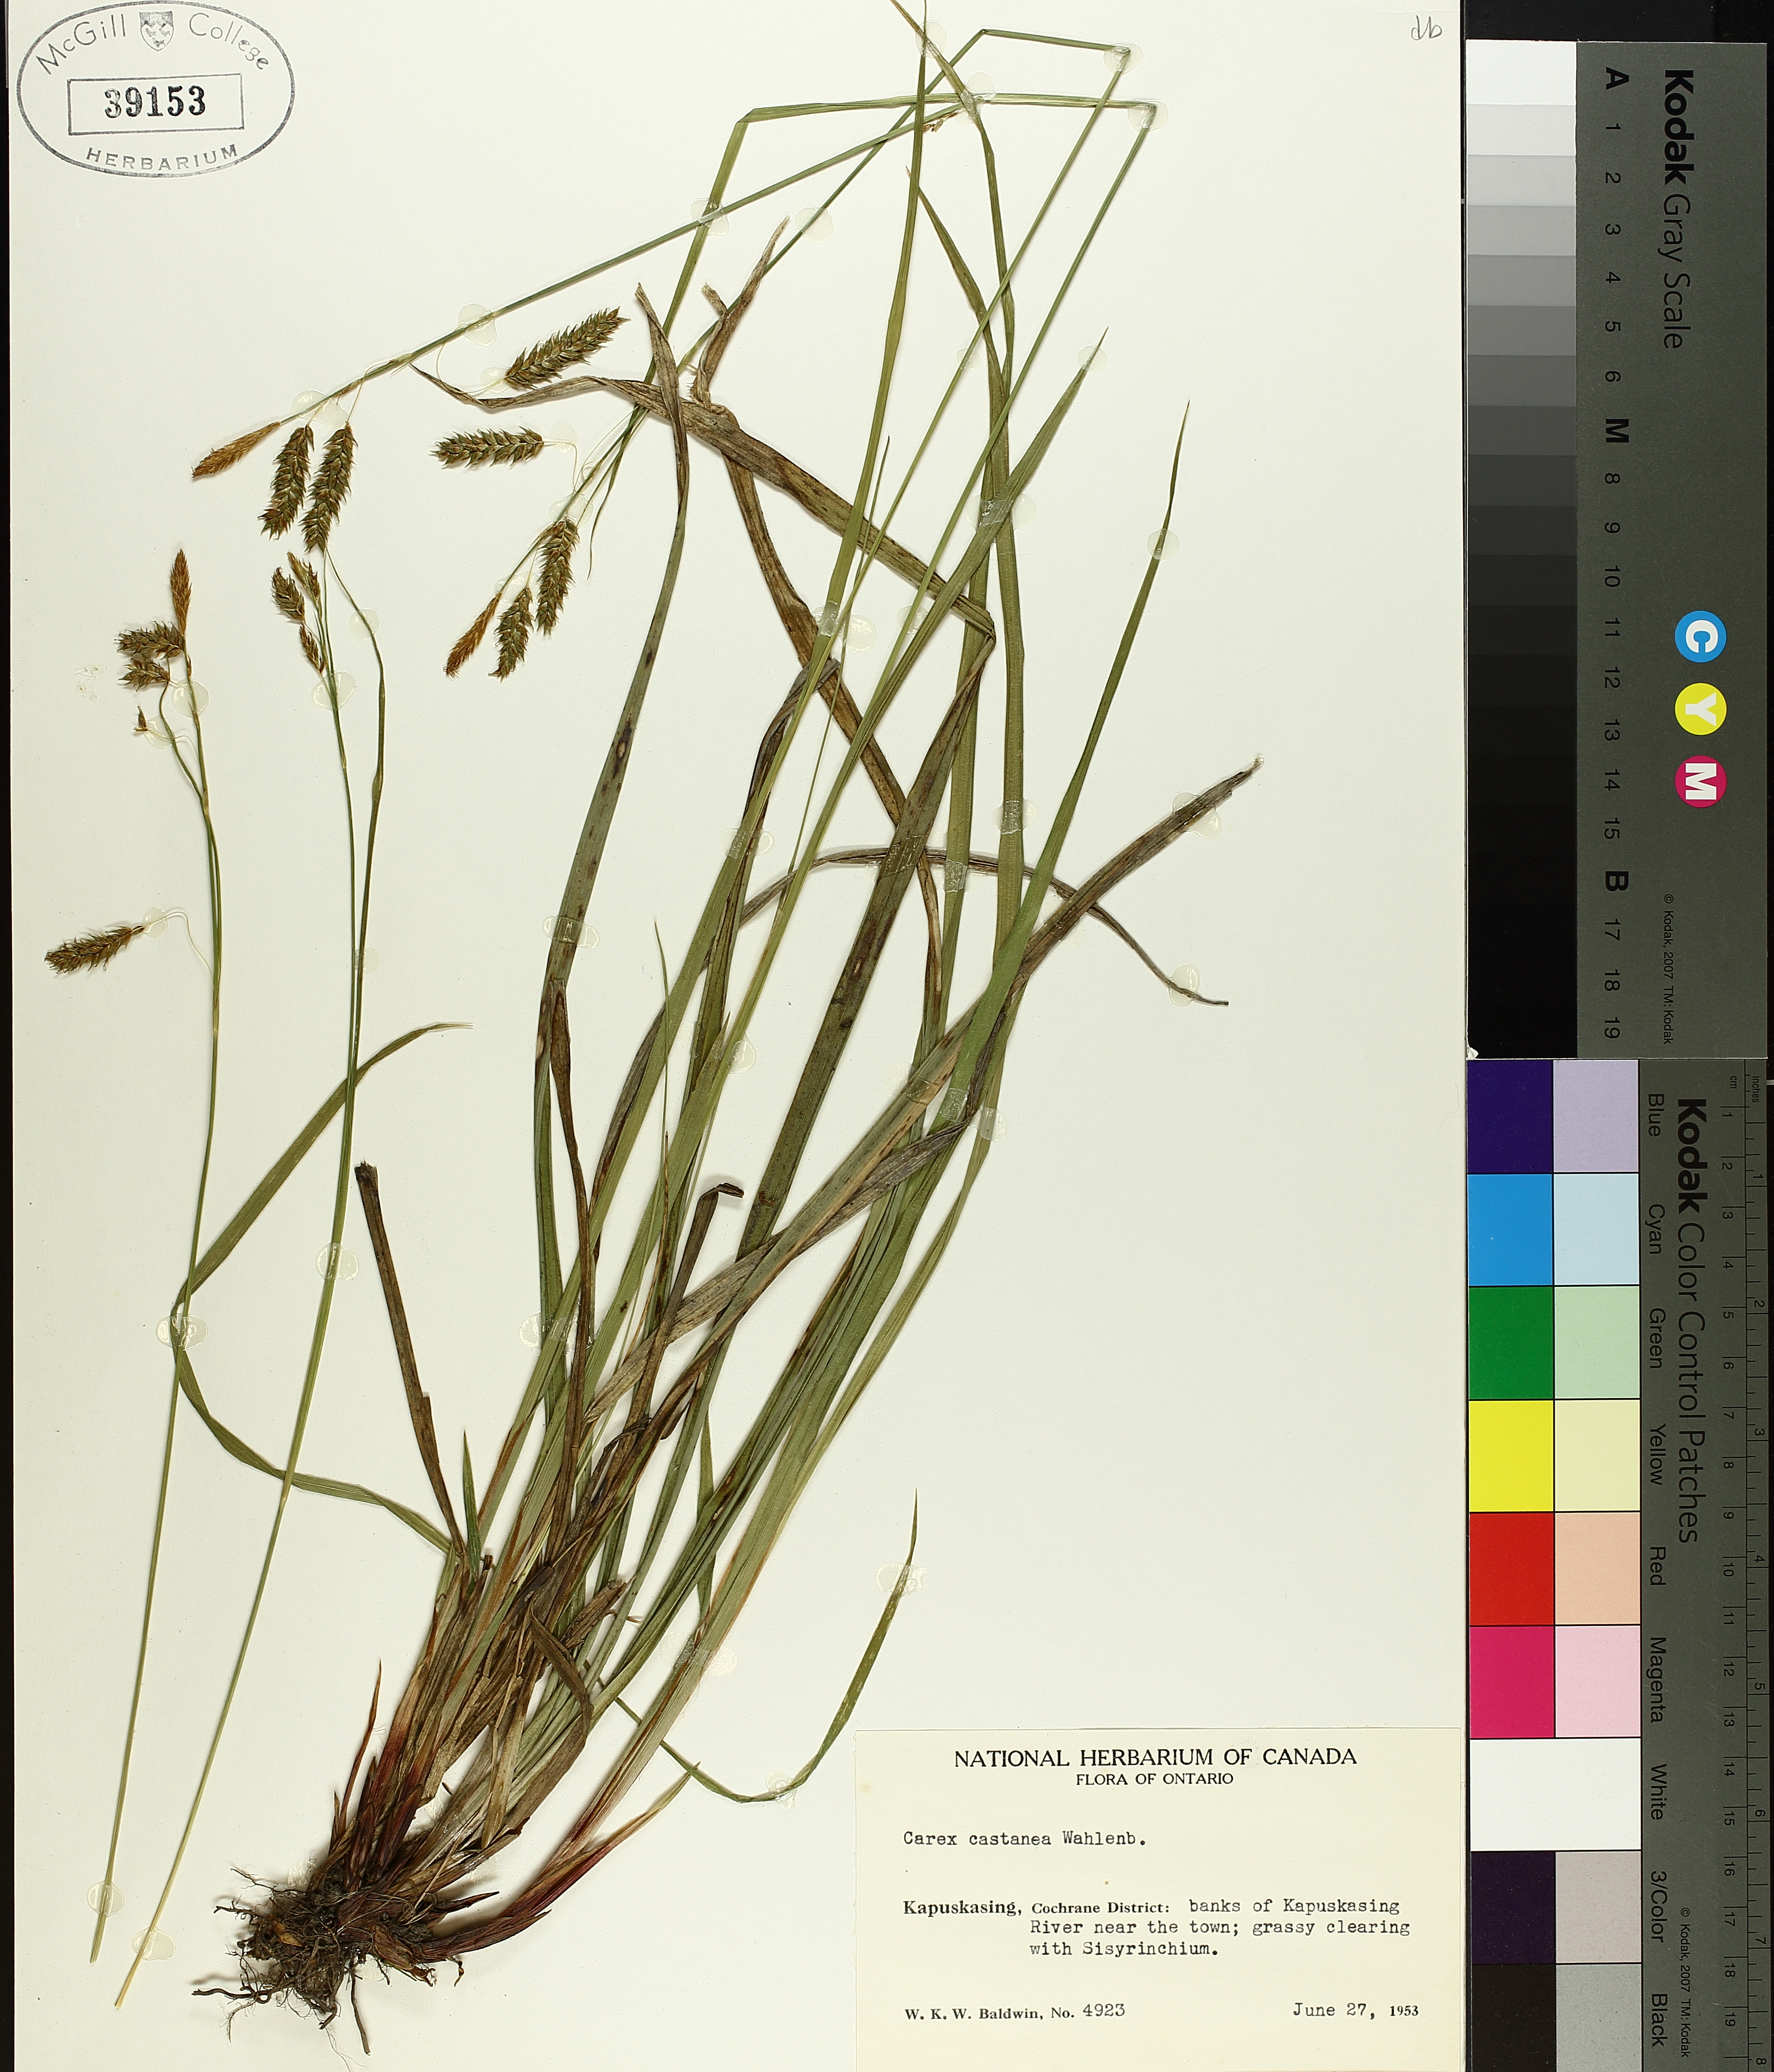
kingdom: Plantae
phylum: Tracheophyta
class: Liliopsida
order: Poales
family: Cyperaceae
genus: Carex
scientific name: Carex castanea
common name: Chestnut sedge
